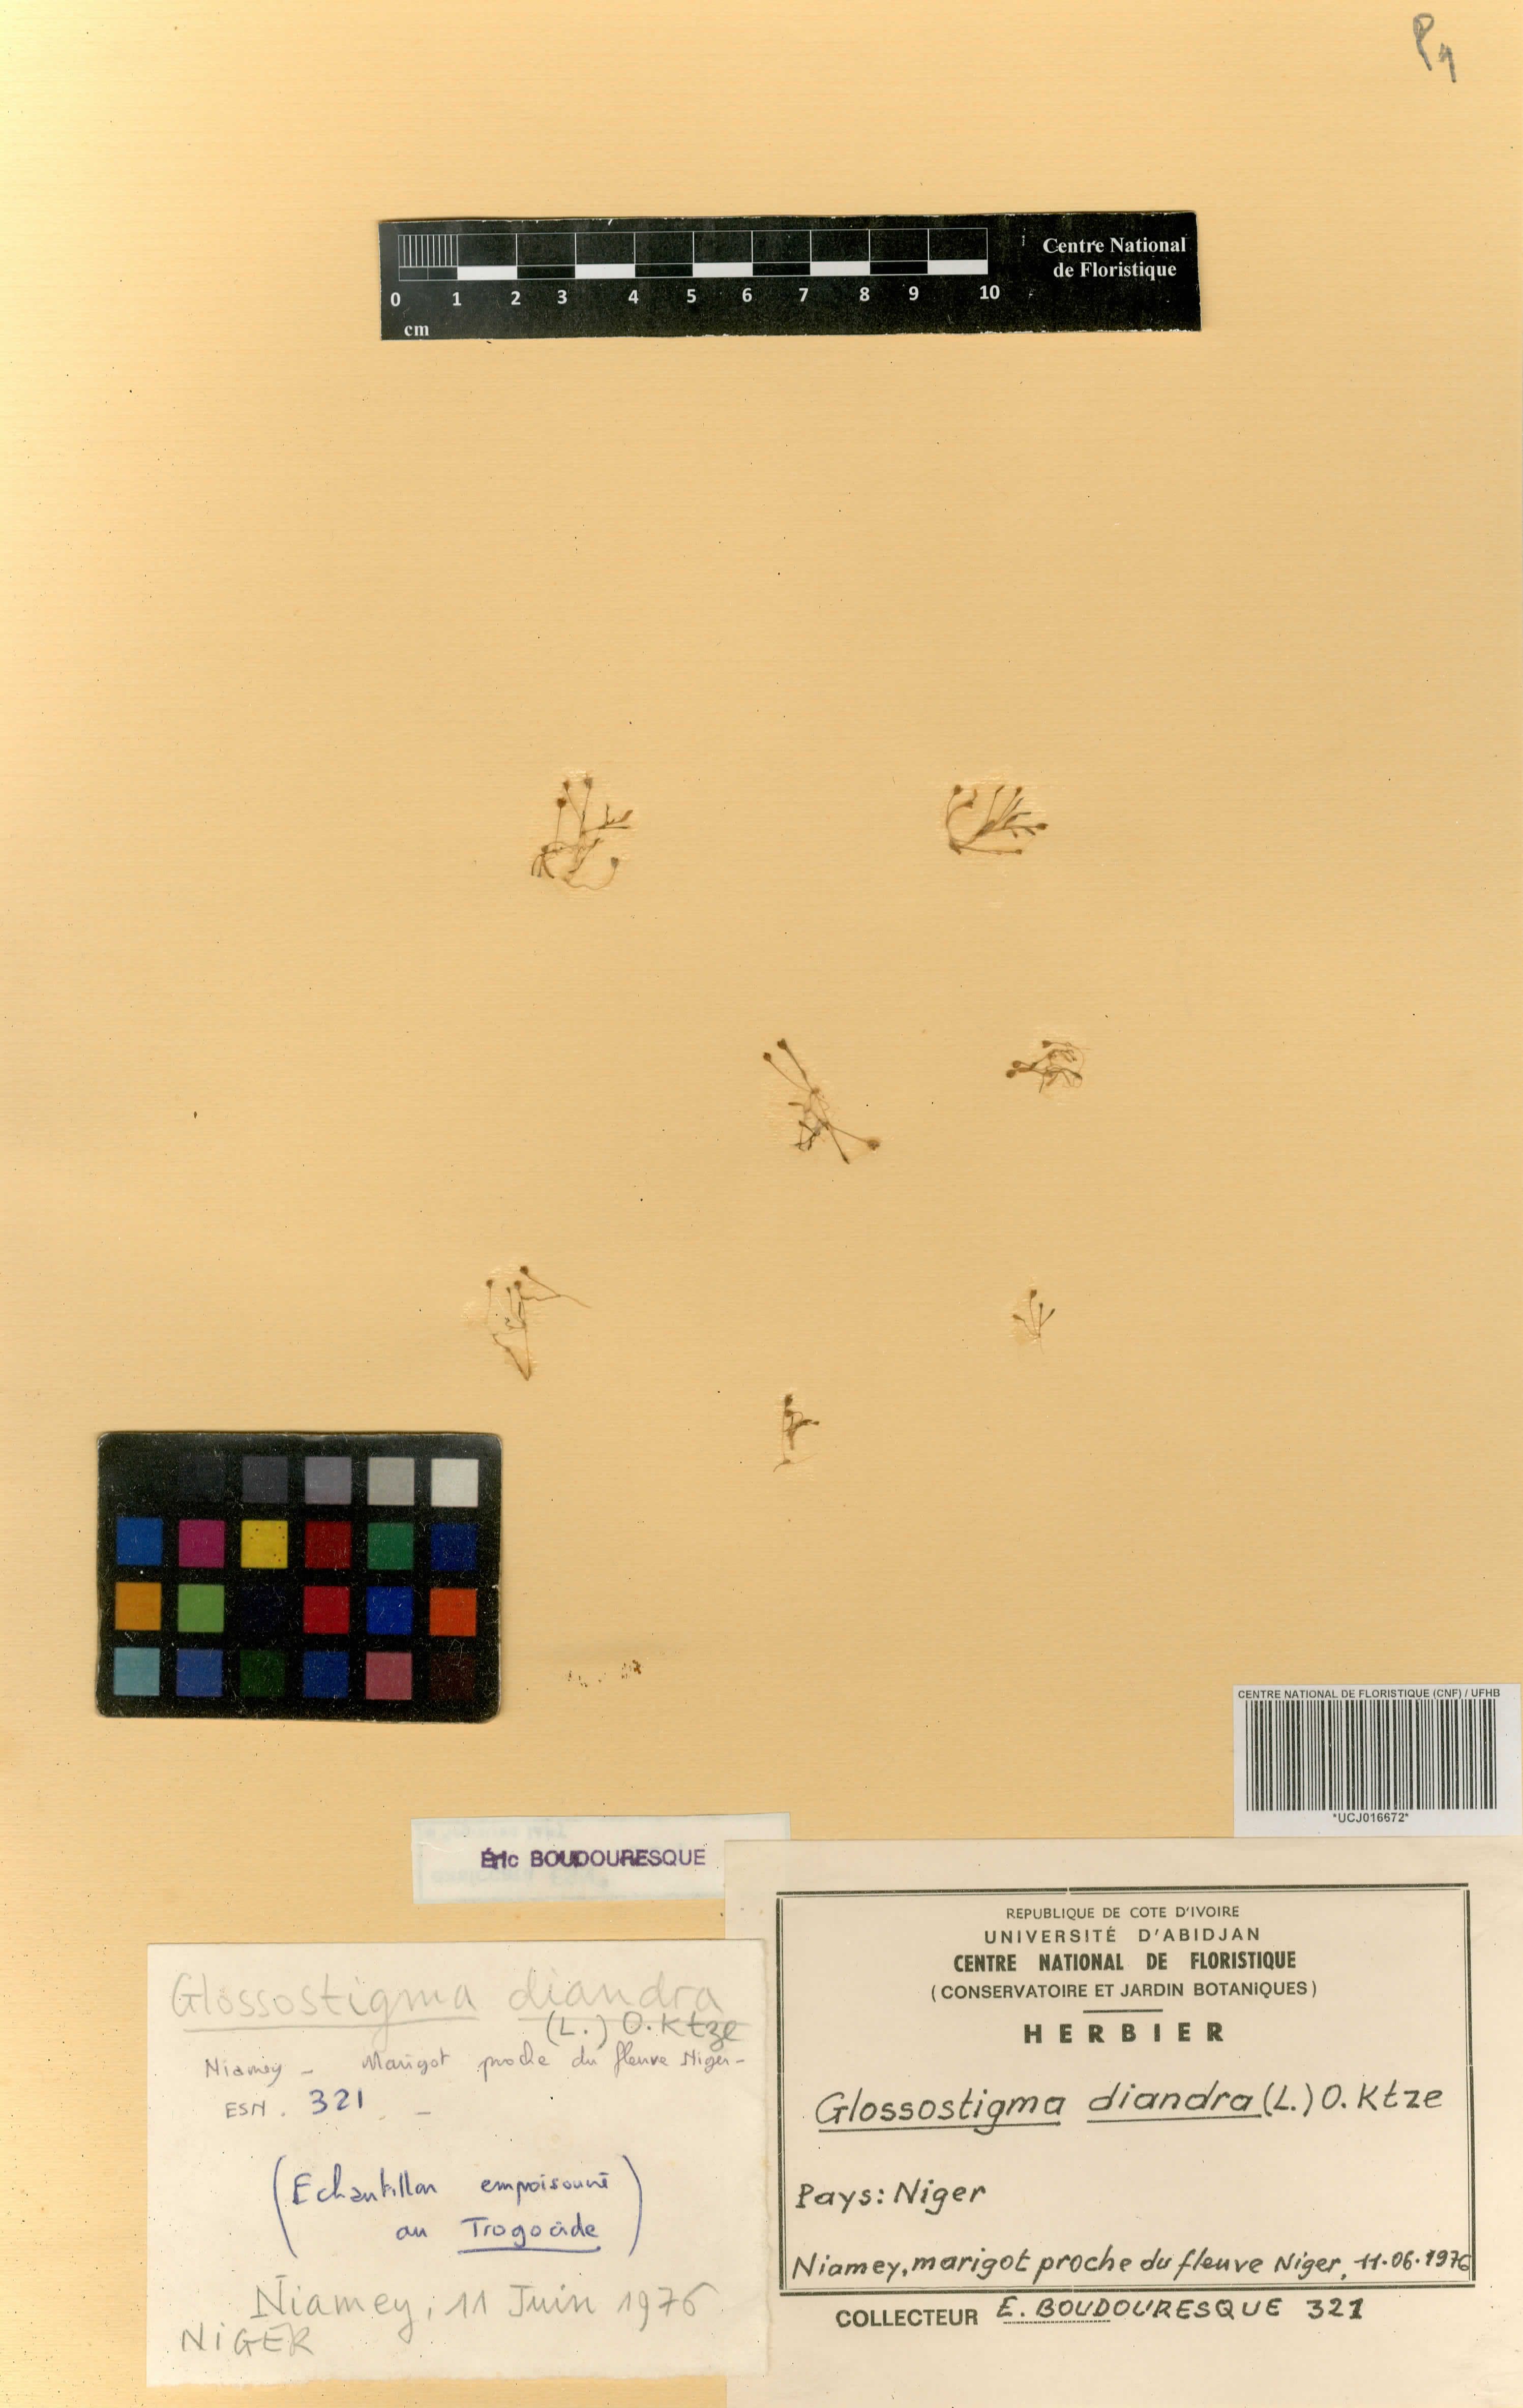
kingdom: Plantae
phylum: Tracheophyta
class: Magnoliopsida
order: Lamiales
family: Scrophulariaceae
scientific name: Scrophulariaceae
